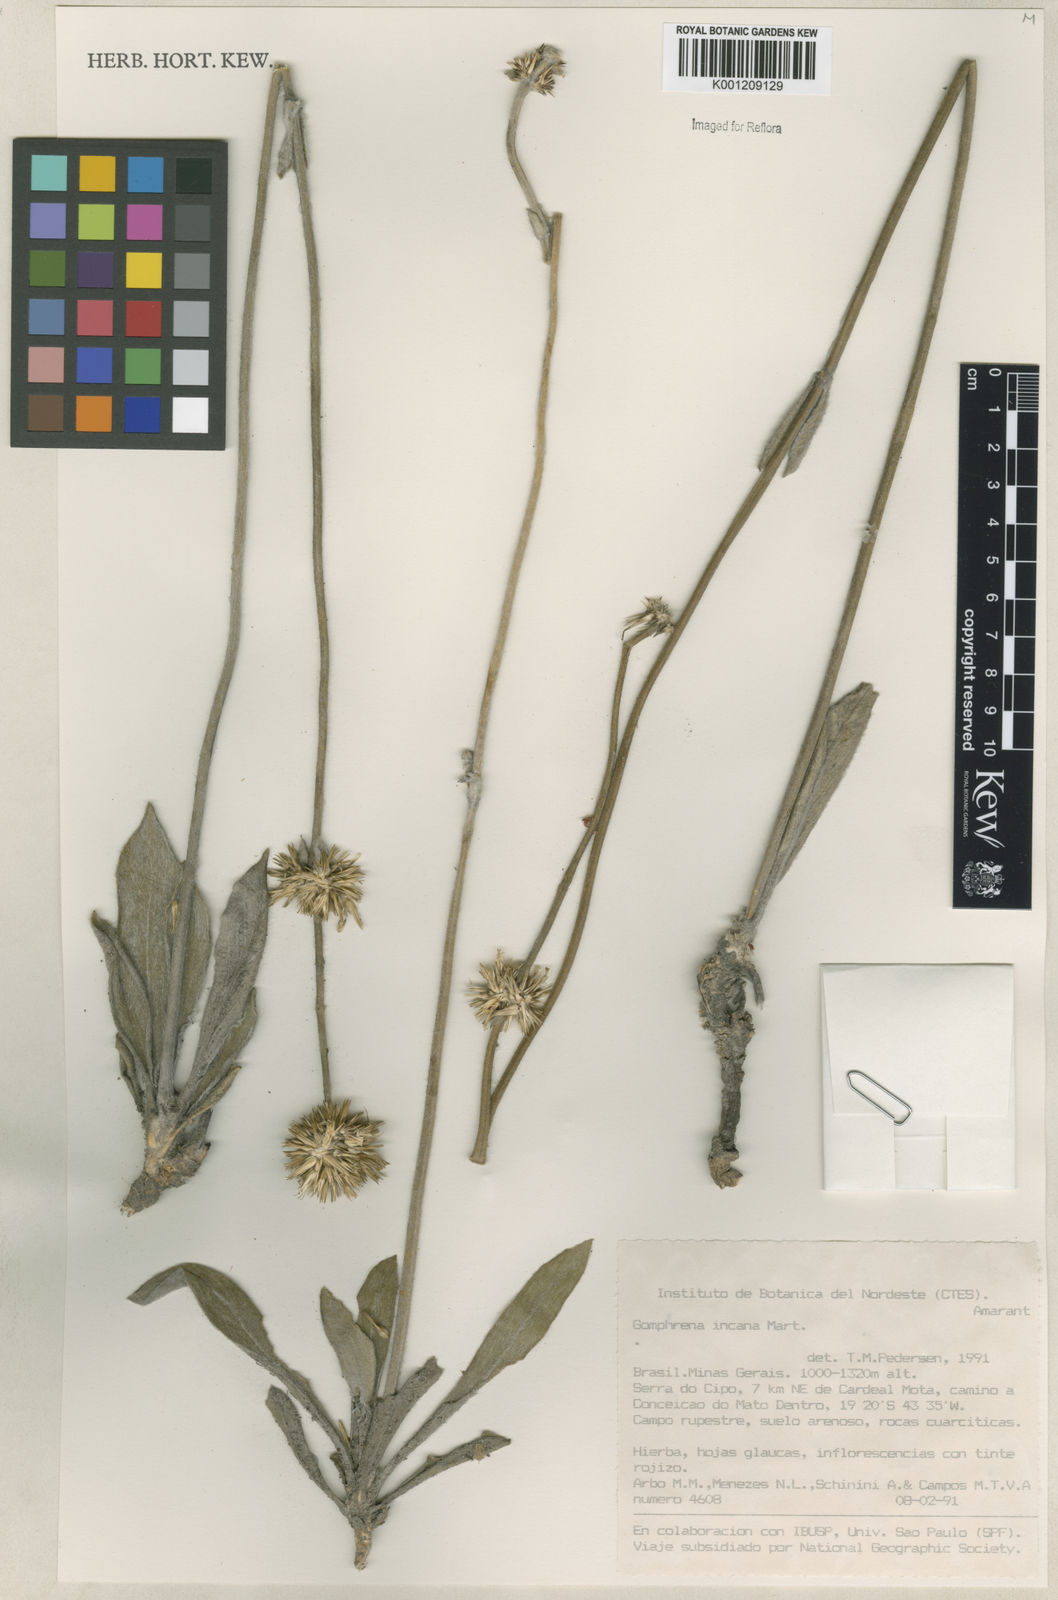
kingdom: Plantae
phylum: Tracheophyta
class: Magnoliopsida
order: Caryophyllales
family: Amaranthaceae
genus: Gomphrena
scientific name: Gomphrena incana
